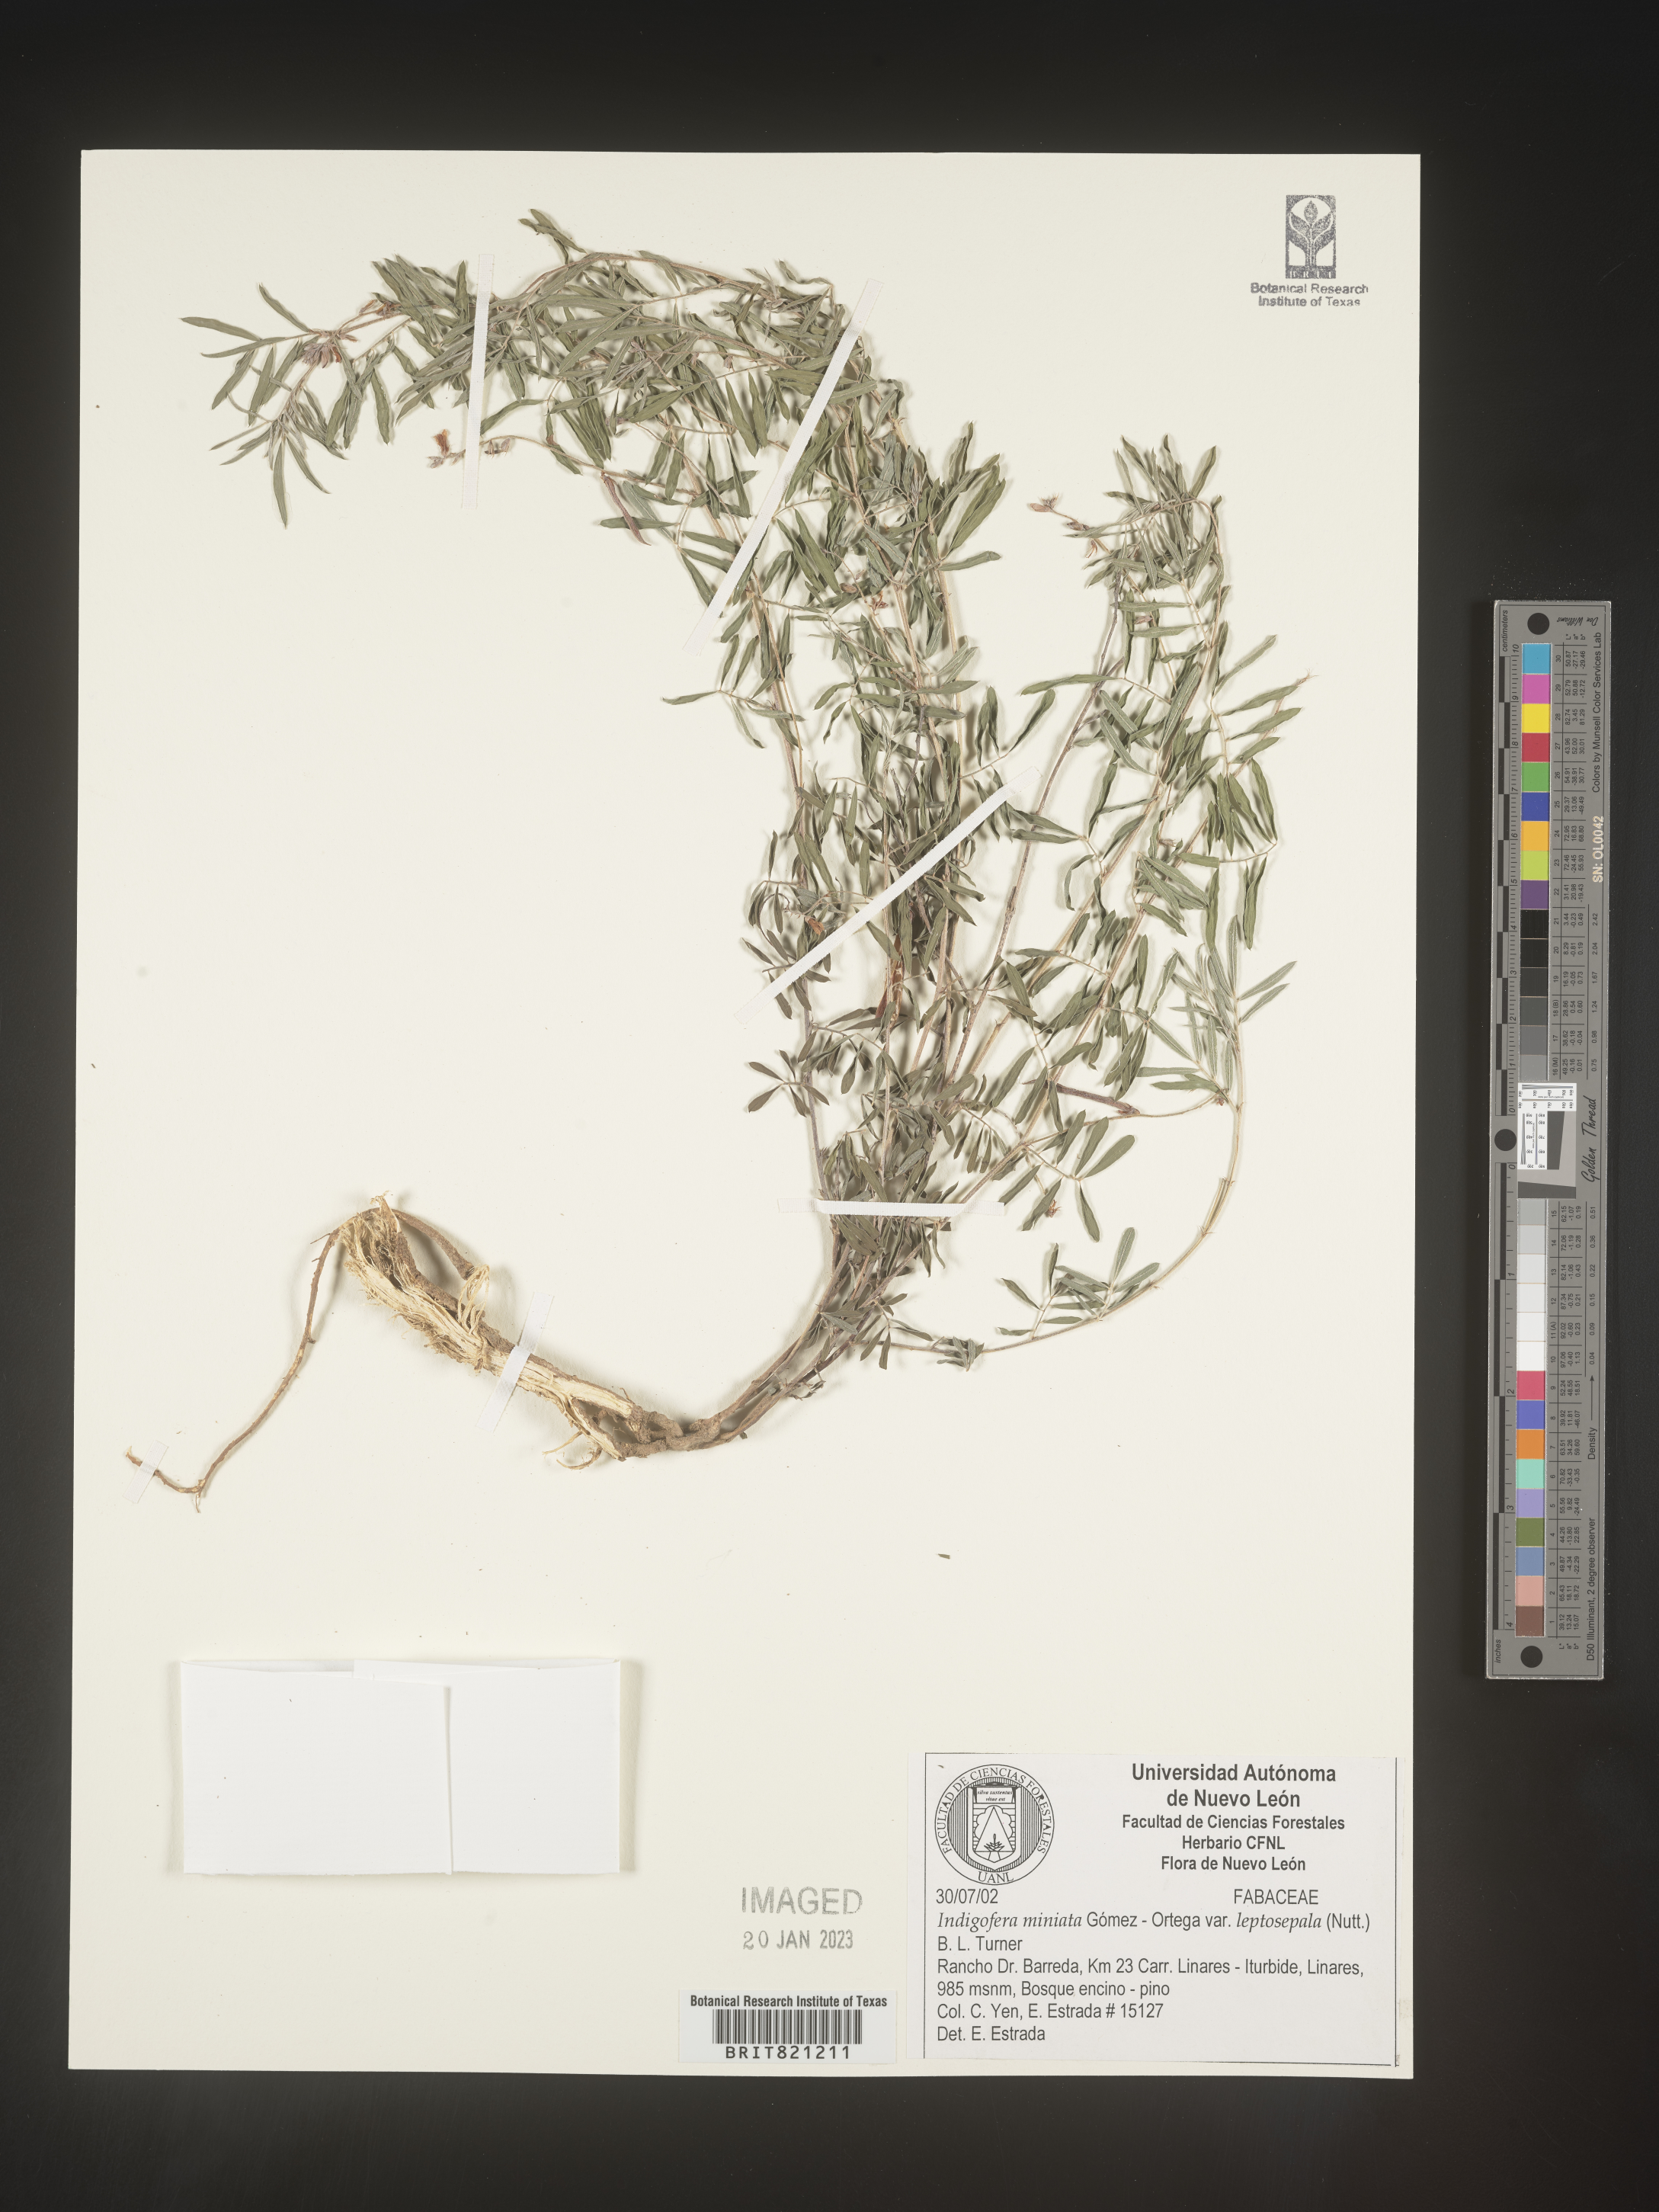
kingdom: Plantae
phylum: Tracheophyta
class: Magnoliopsida
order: Fabales
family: Fabaceae
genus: Indigofera
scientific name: Indigofera
